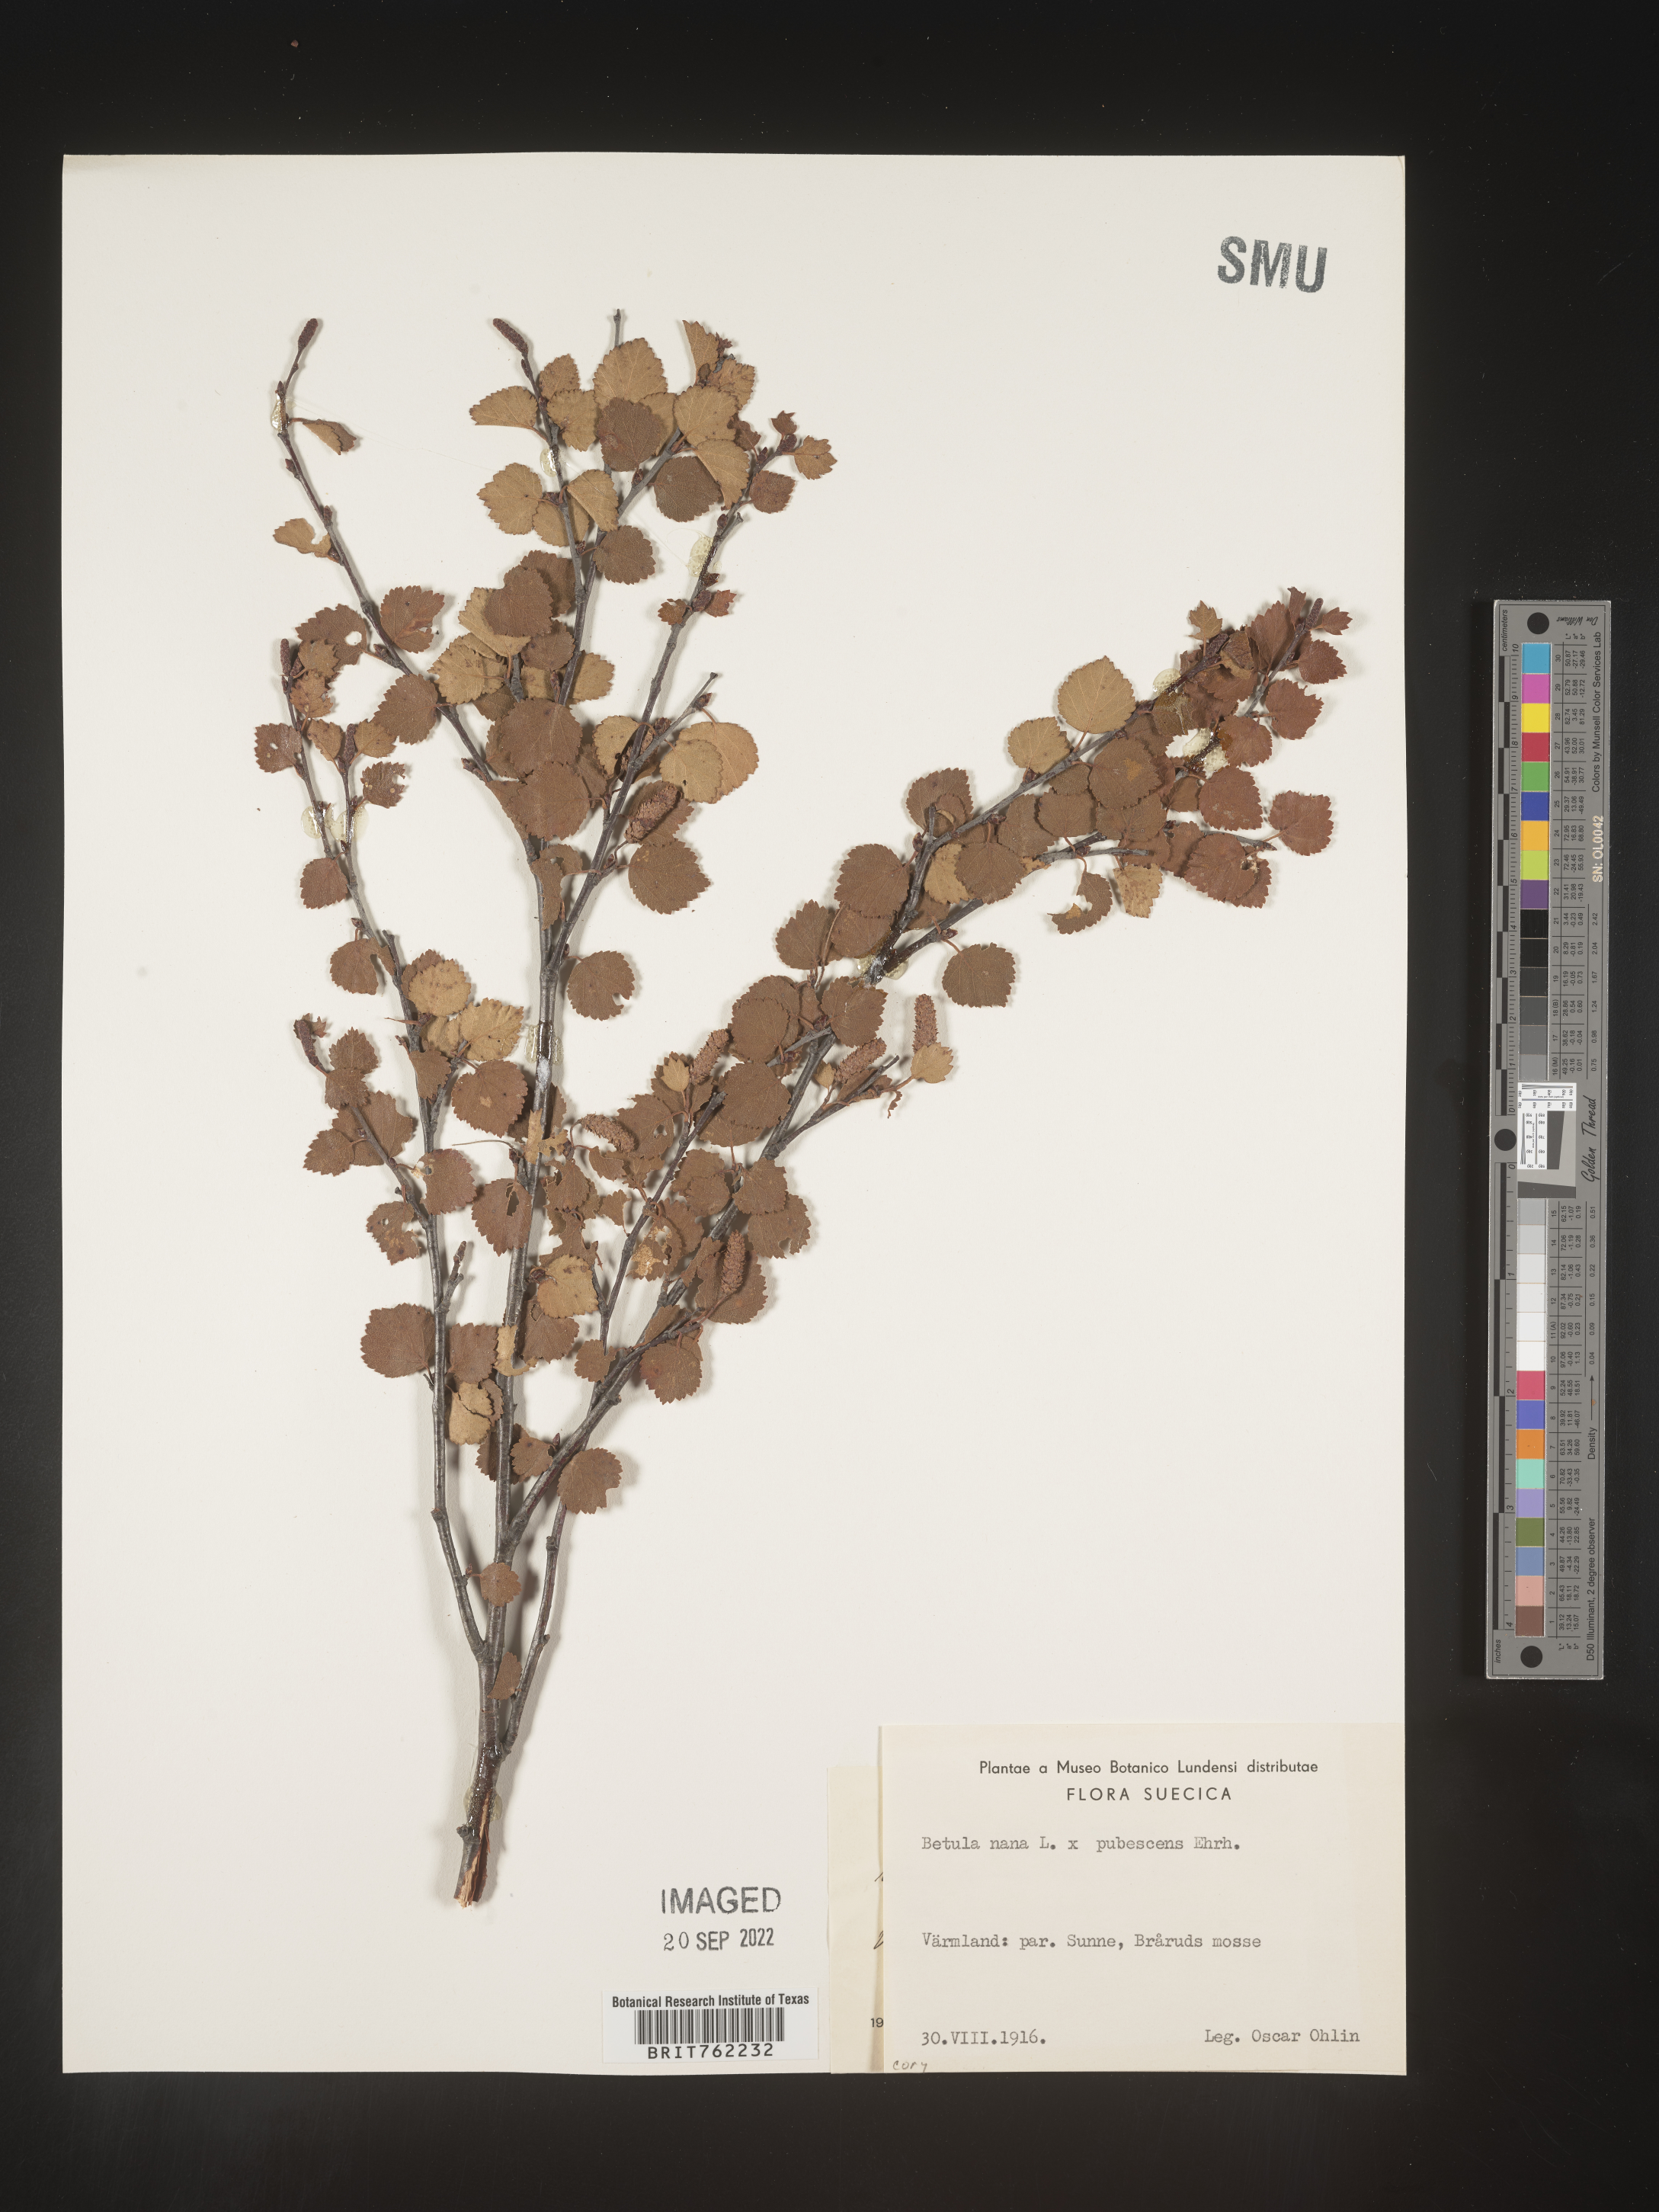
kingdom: Plantae
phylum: Tracheophyta
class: Magnoliopsida
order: Fagales
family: Betulaceae
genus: Betula
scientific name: Betula
